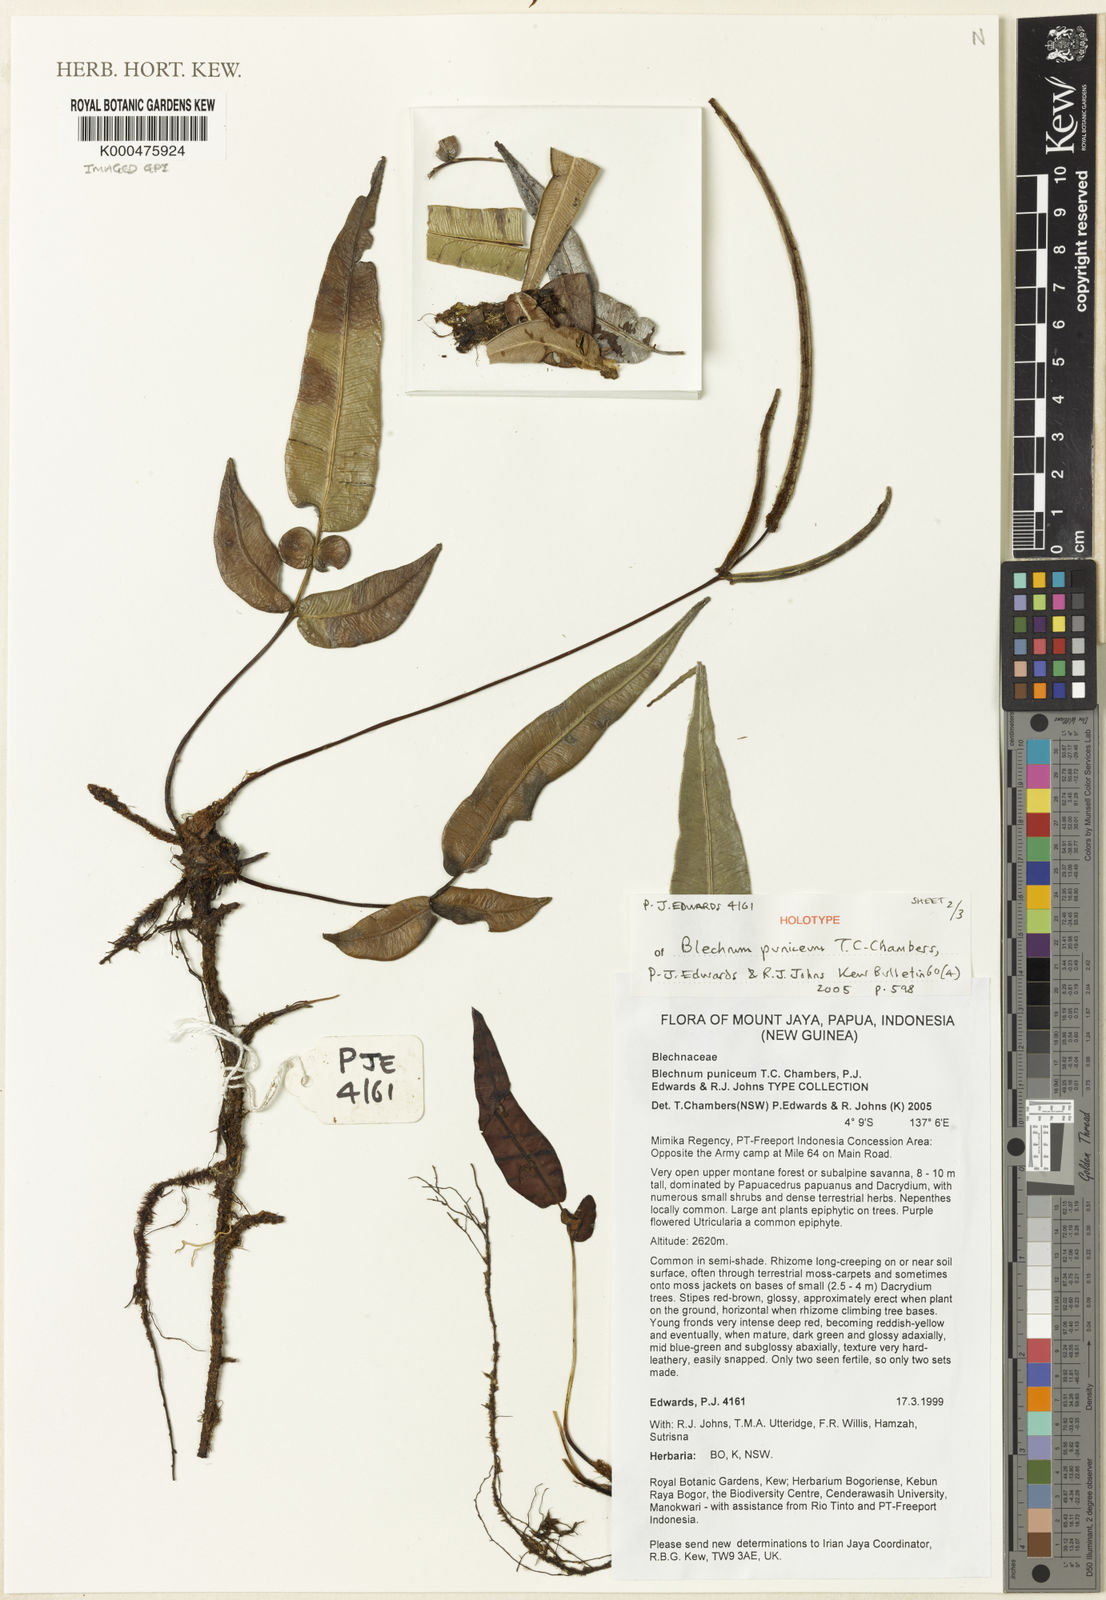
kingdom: Plantae
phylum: Tracheophyta
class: Polypodiopsida
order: Polypodiales
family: Blechnaceae
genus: Parablechnum
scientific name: Parablechnum puniceum
